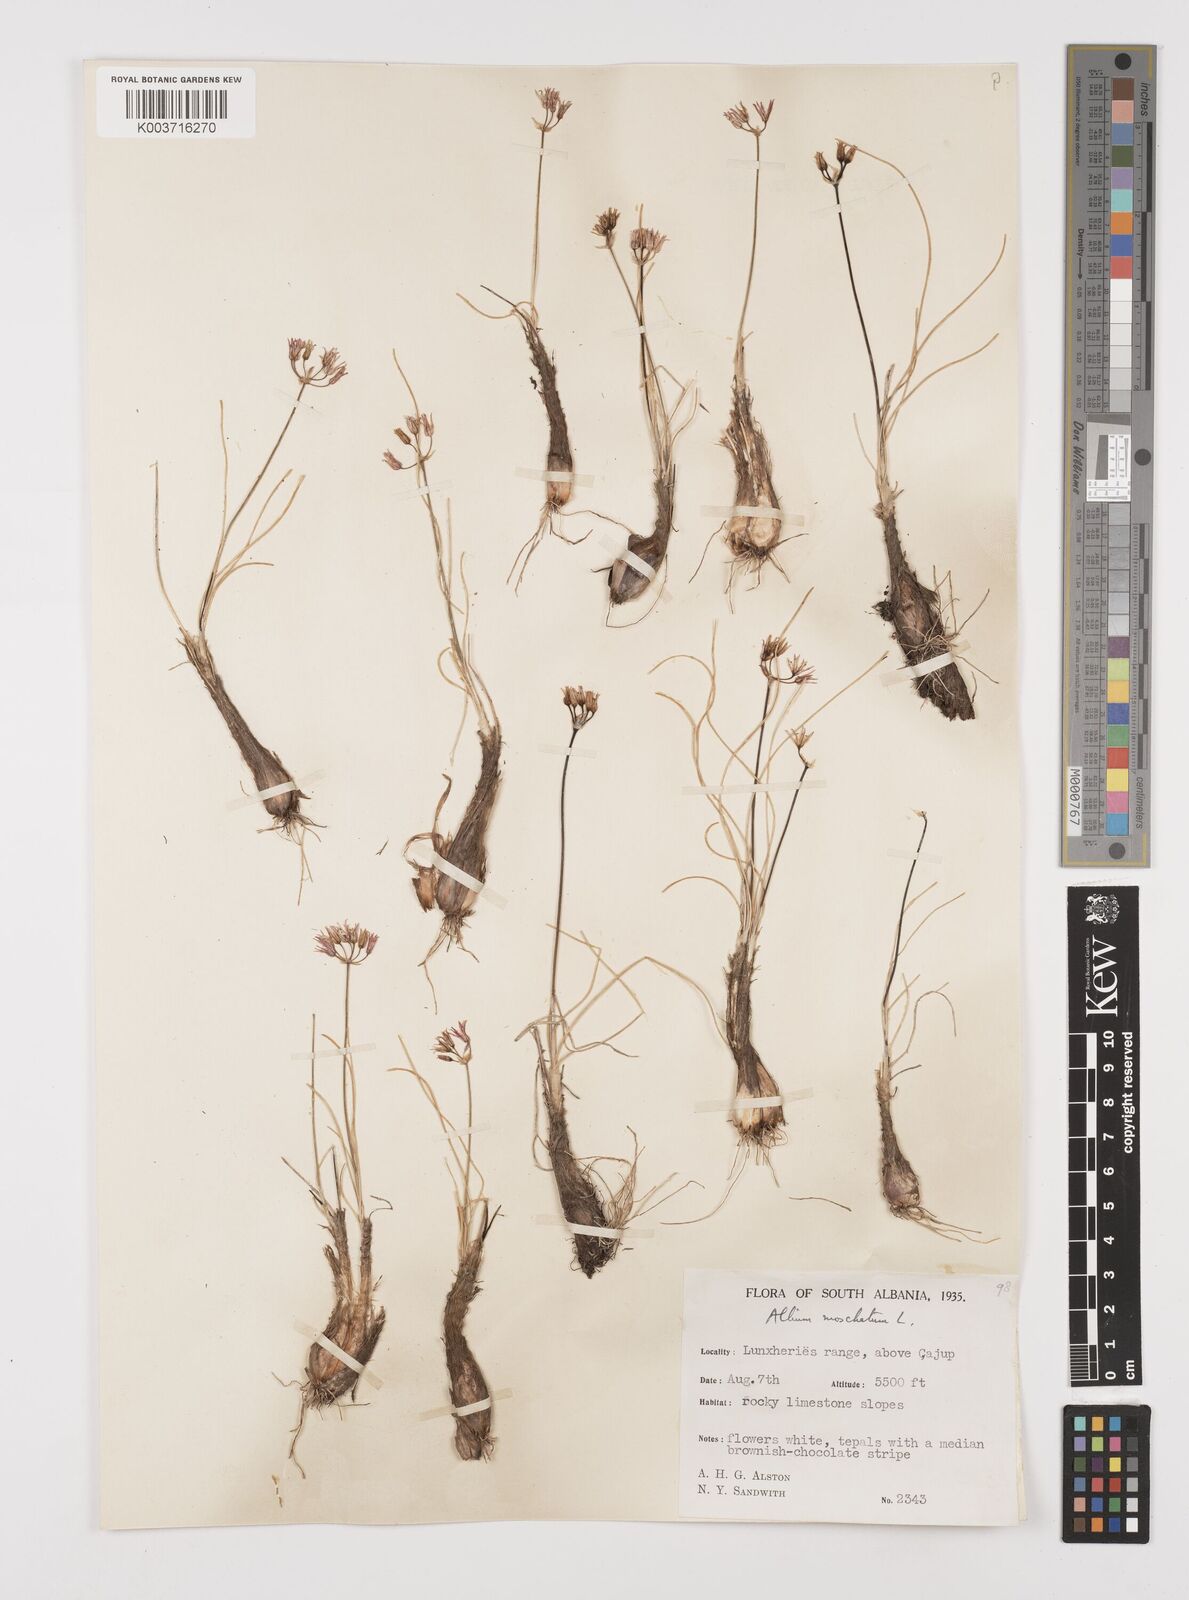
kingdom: Plantae
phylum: Tracheophyta
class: Liliopsida
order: Asparagales
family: Amaryllidaceae
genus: Allium
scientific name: Allium moschatum
